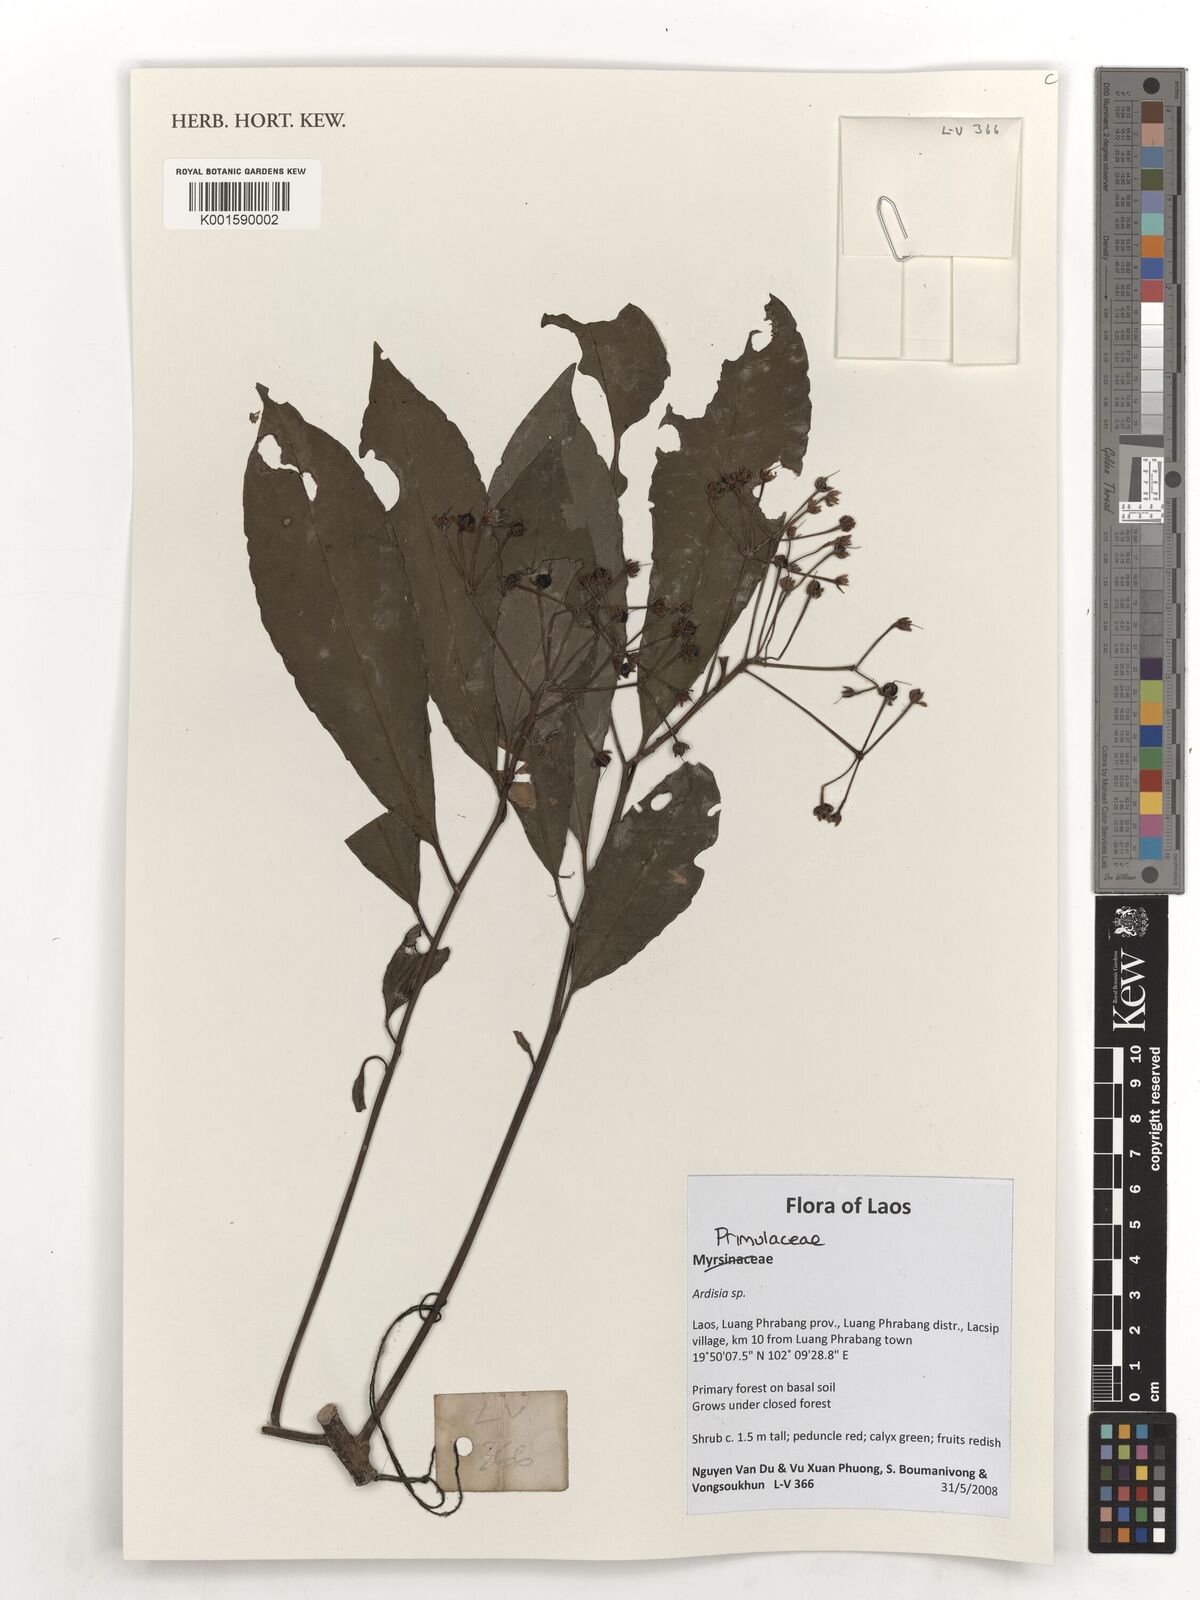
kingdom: Plantae
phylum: Tracheophyta
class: Magnoliopsida
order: Ericales
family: Primulaceae
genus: Ardisia
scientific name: Ardisia
